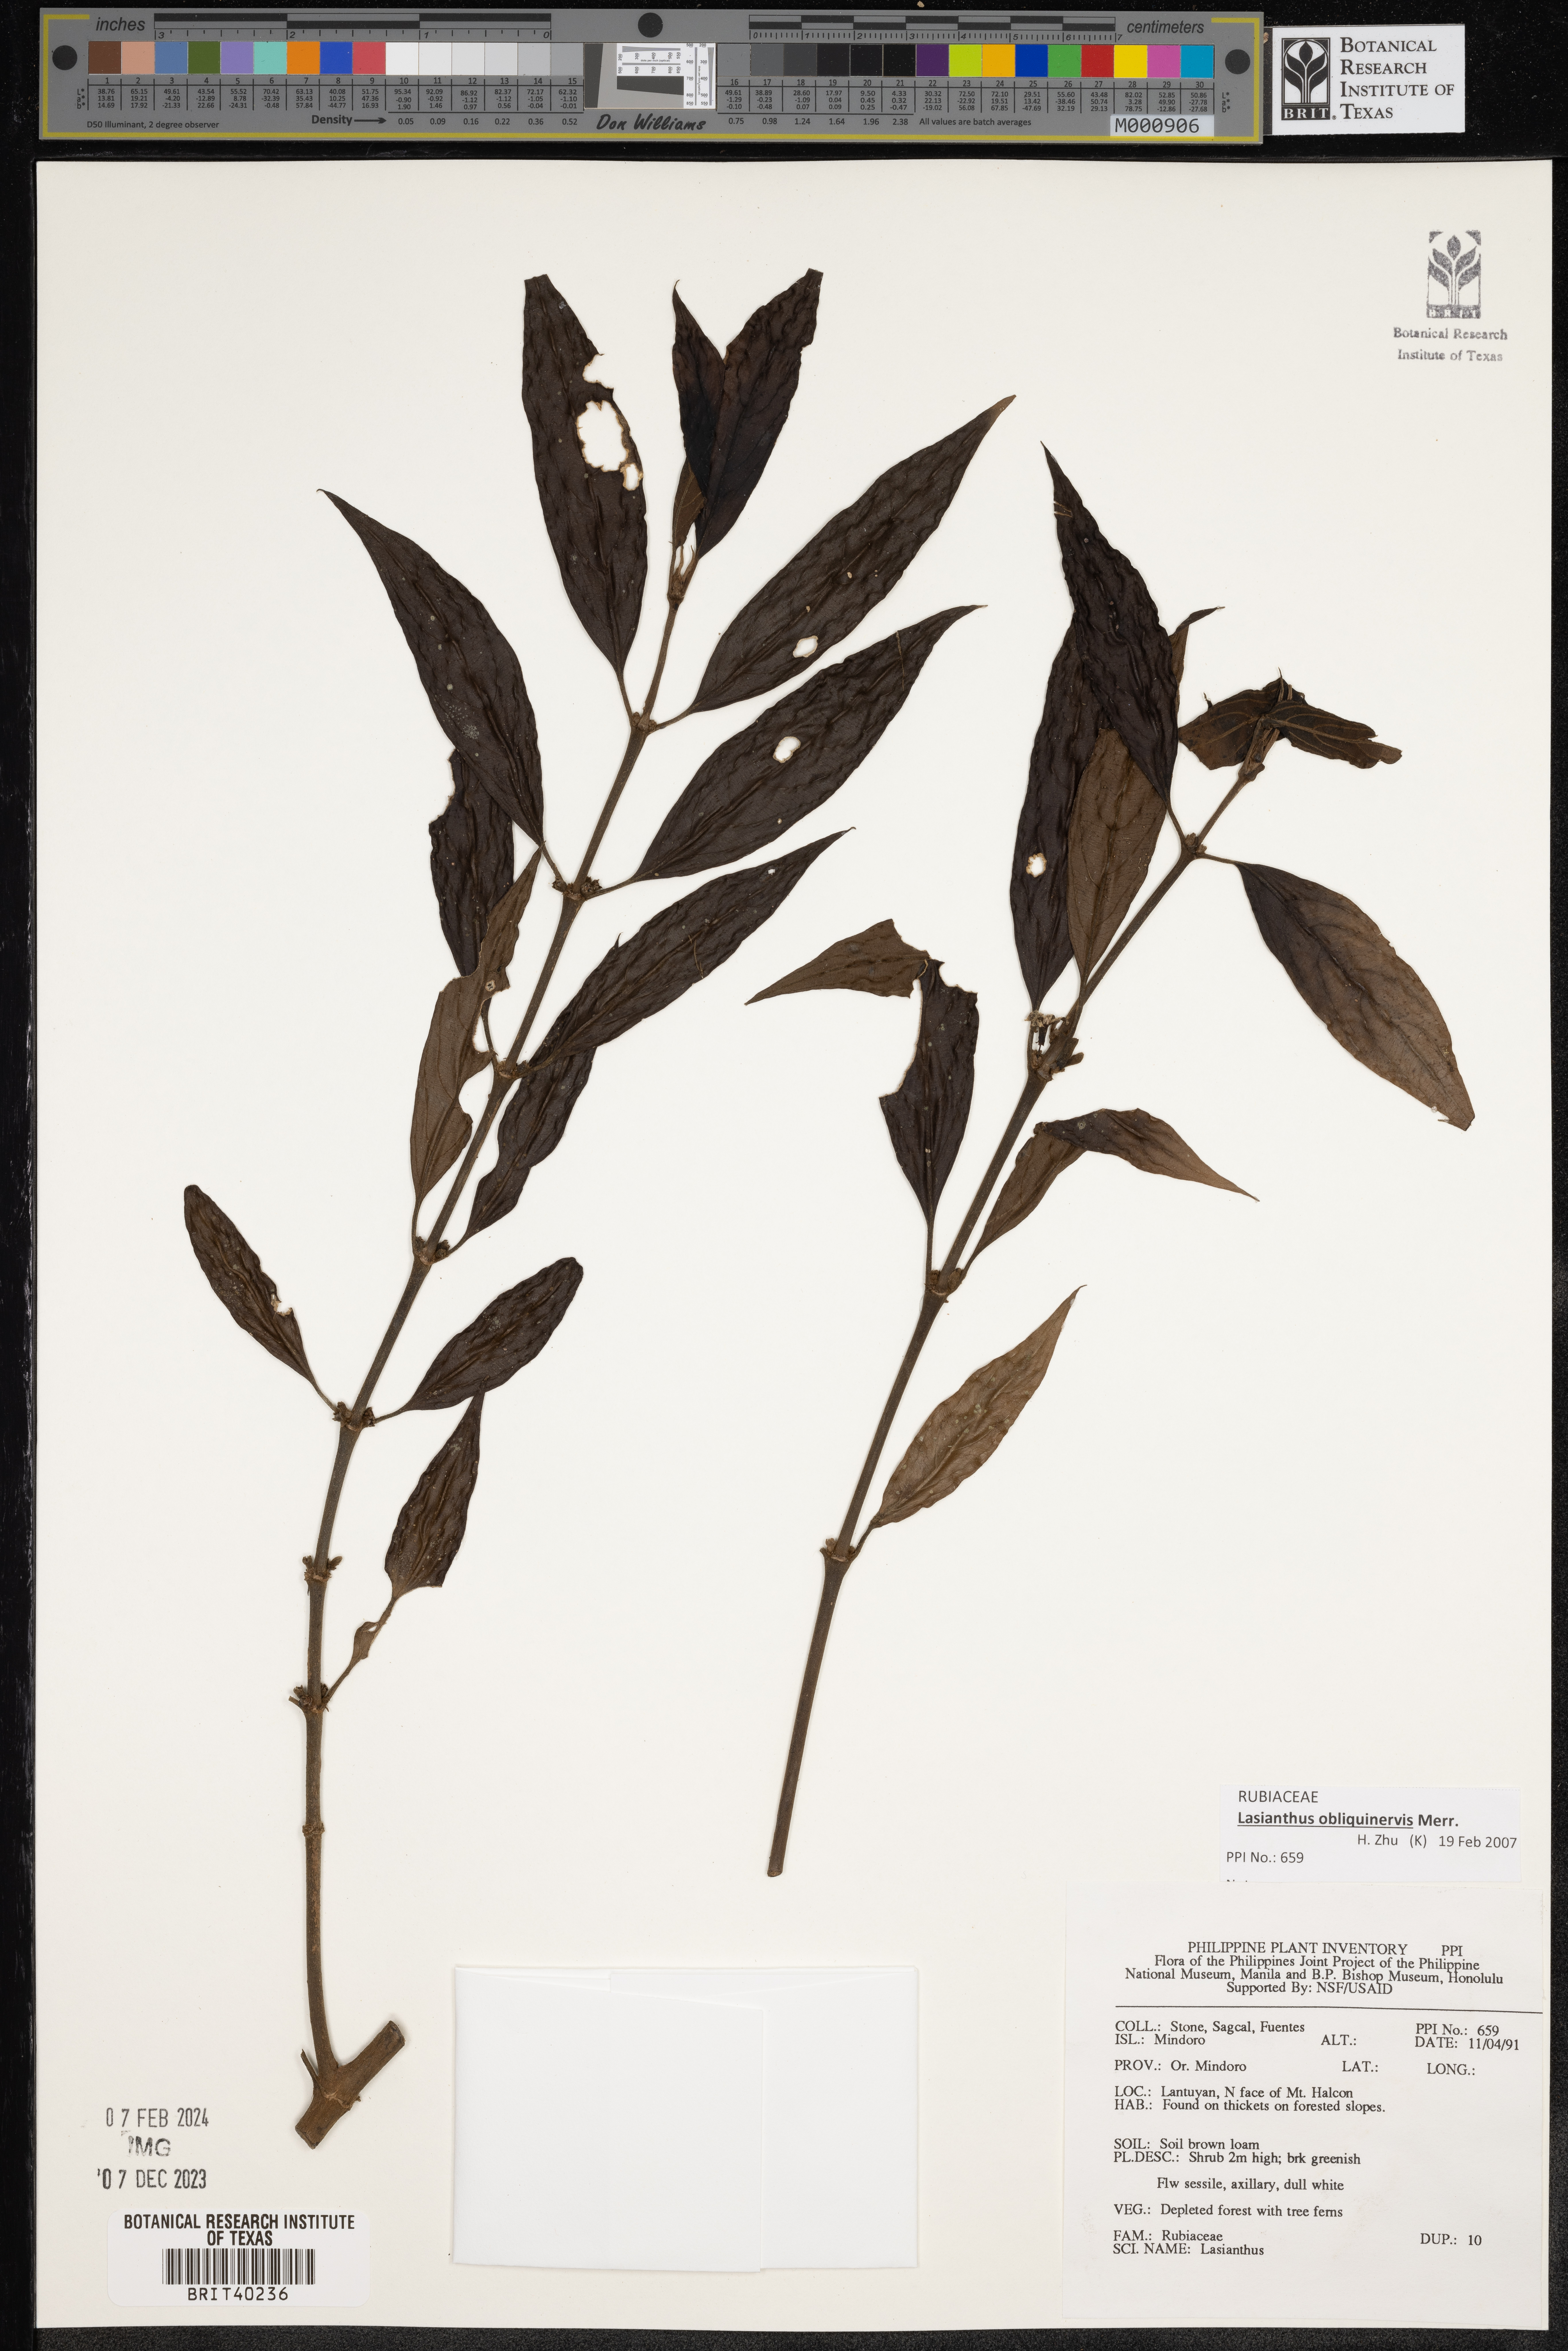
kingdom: Plantae
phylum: Tracheophyta
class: Magnoliopsida
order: Gentianales
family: Rubiaceae
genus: Lasianthus
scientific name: Lasianthus
